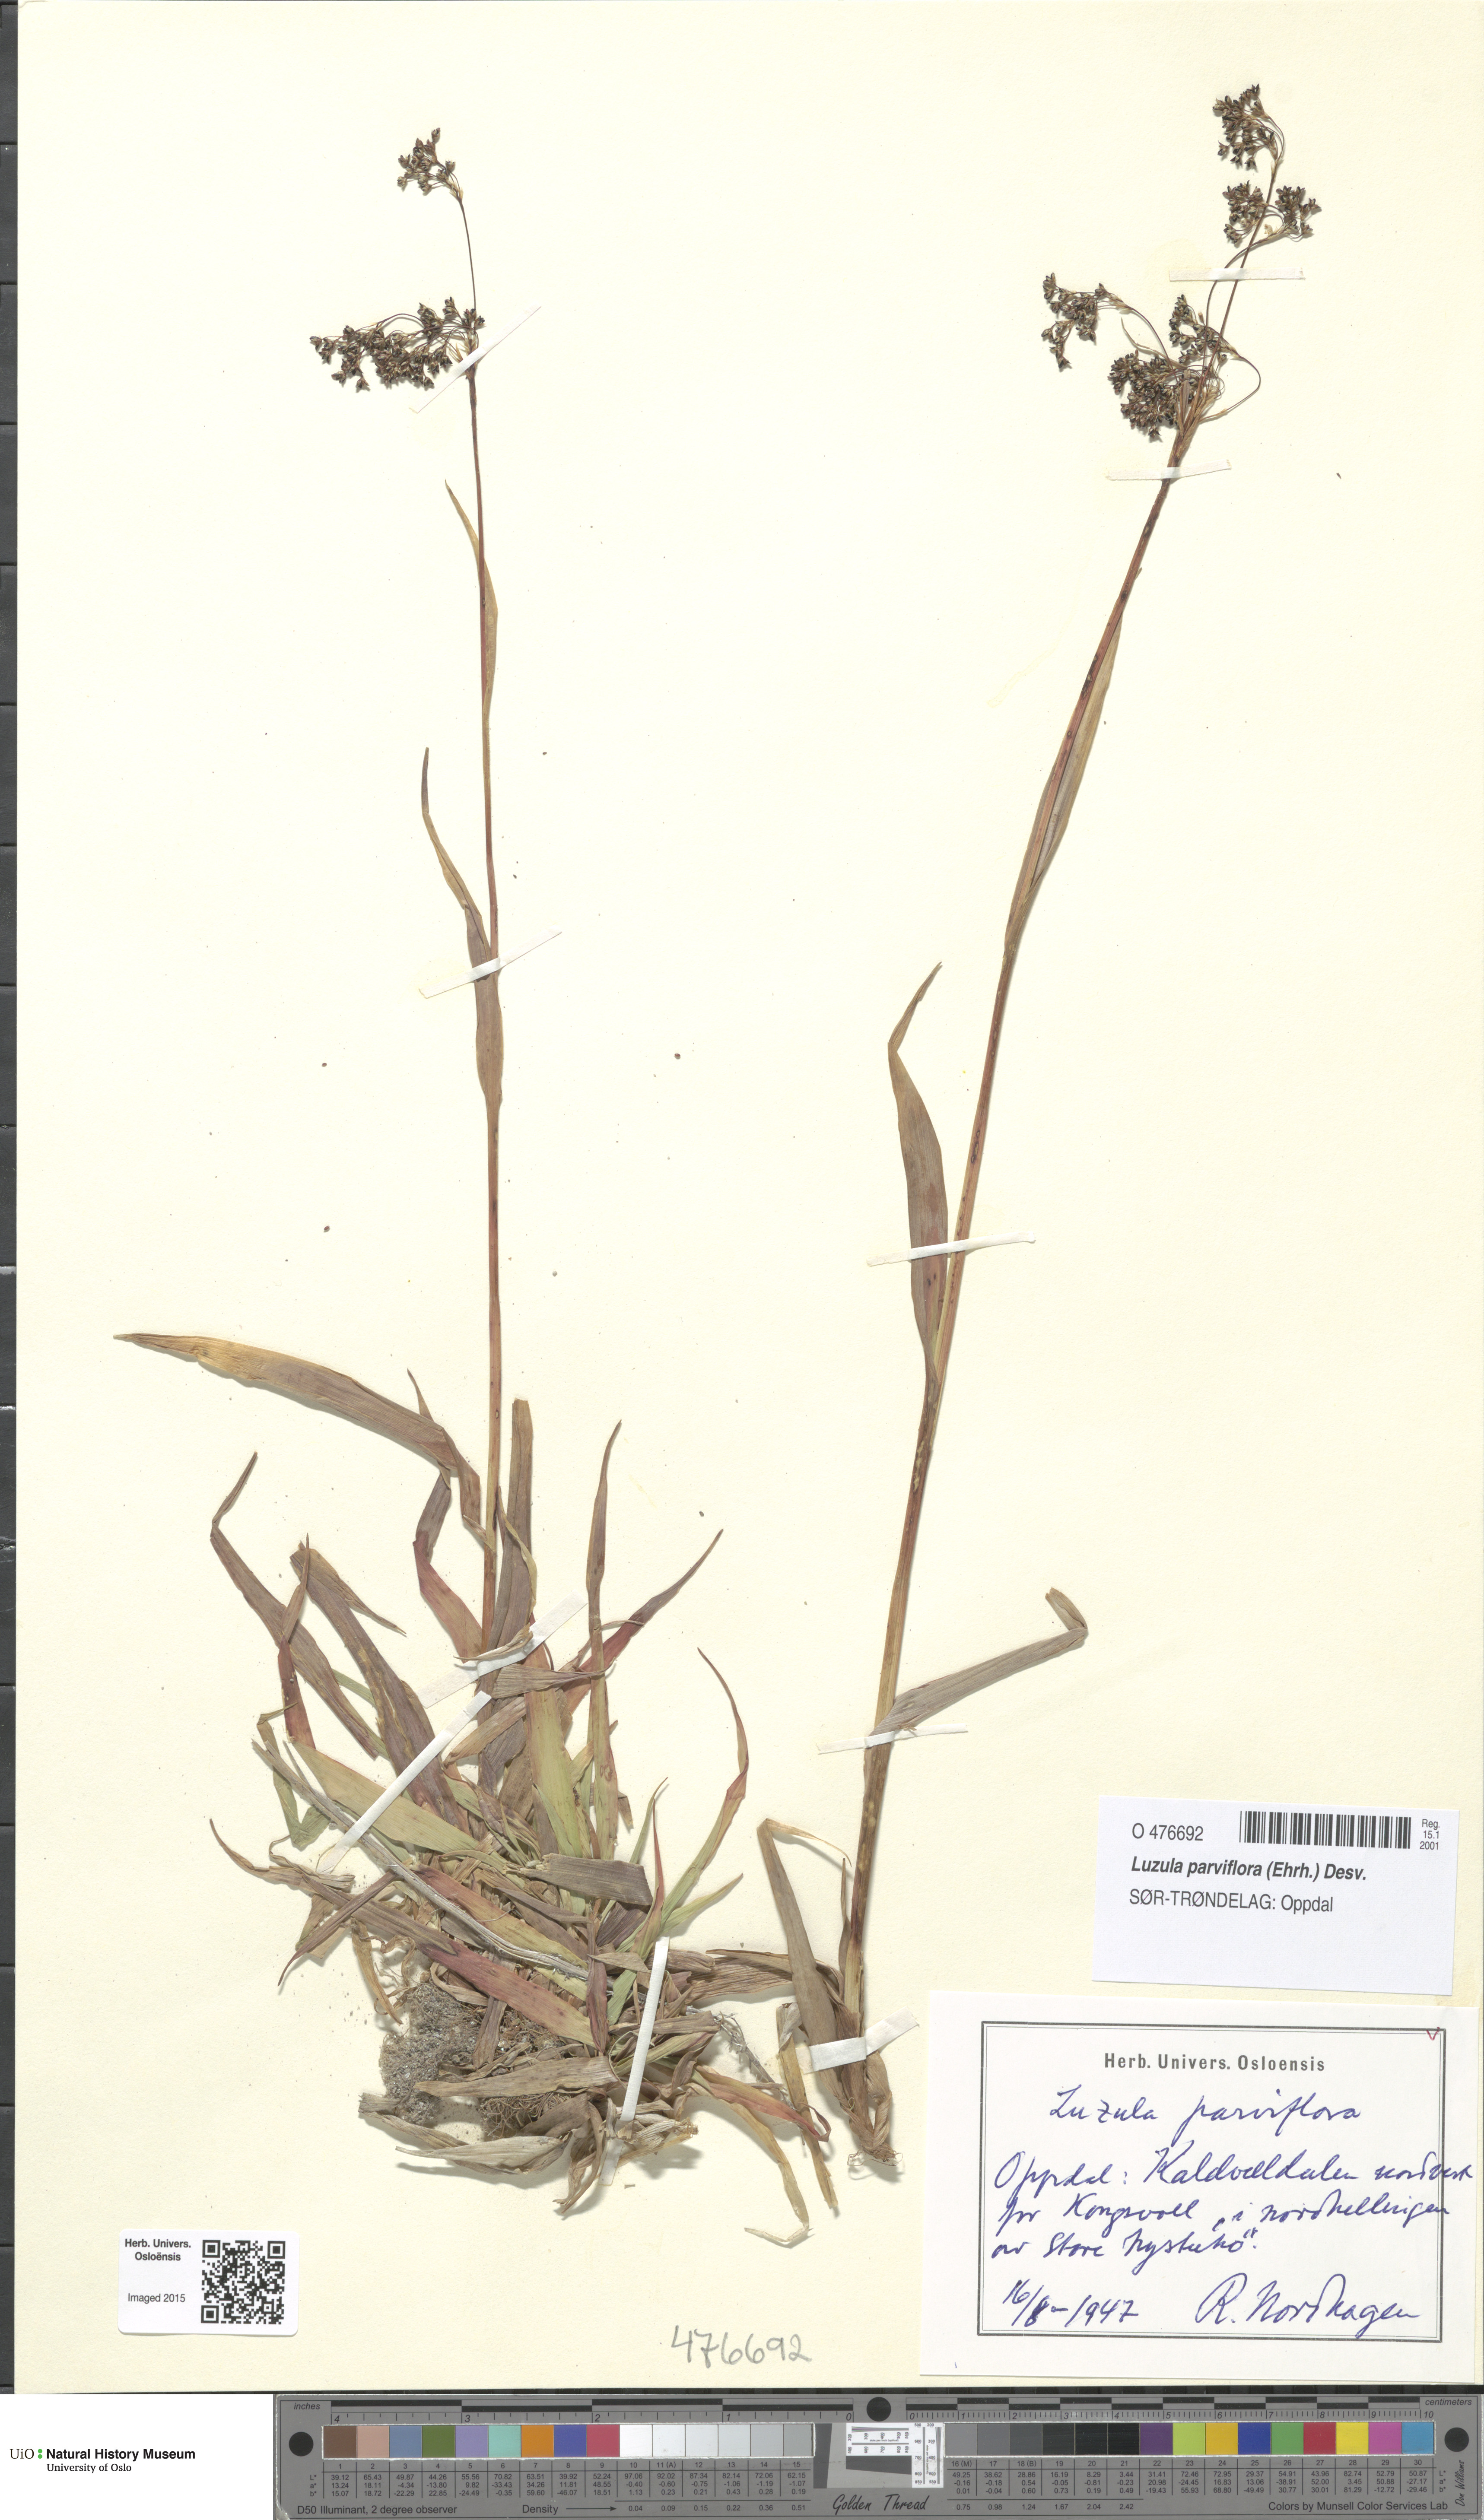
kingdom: Plantae
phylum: Tracheophyta
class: Liliopsida
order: Poales
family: Juncaceae
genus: Luzula
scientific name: Luzula parviflora
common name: Millet woodrush
